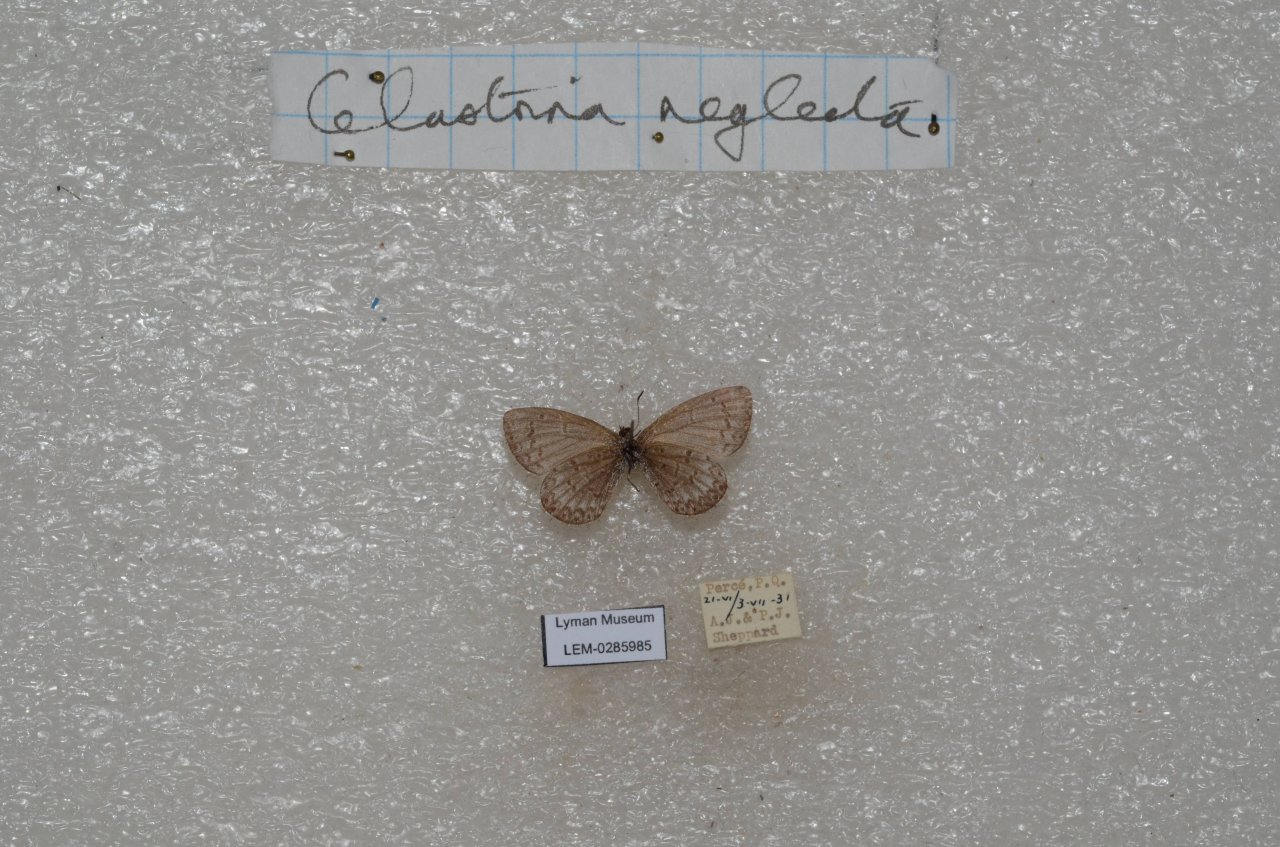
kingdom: Animalia
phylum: Arthropoda
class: Insecta
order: Lepidoptera
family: Lycaenidae
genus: Celastrina
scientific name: Celastrina lucia
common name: Northern Spring Azure
